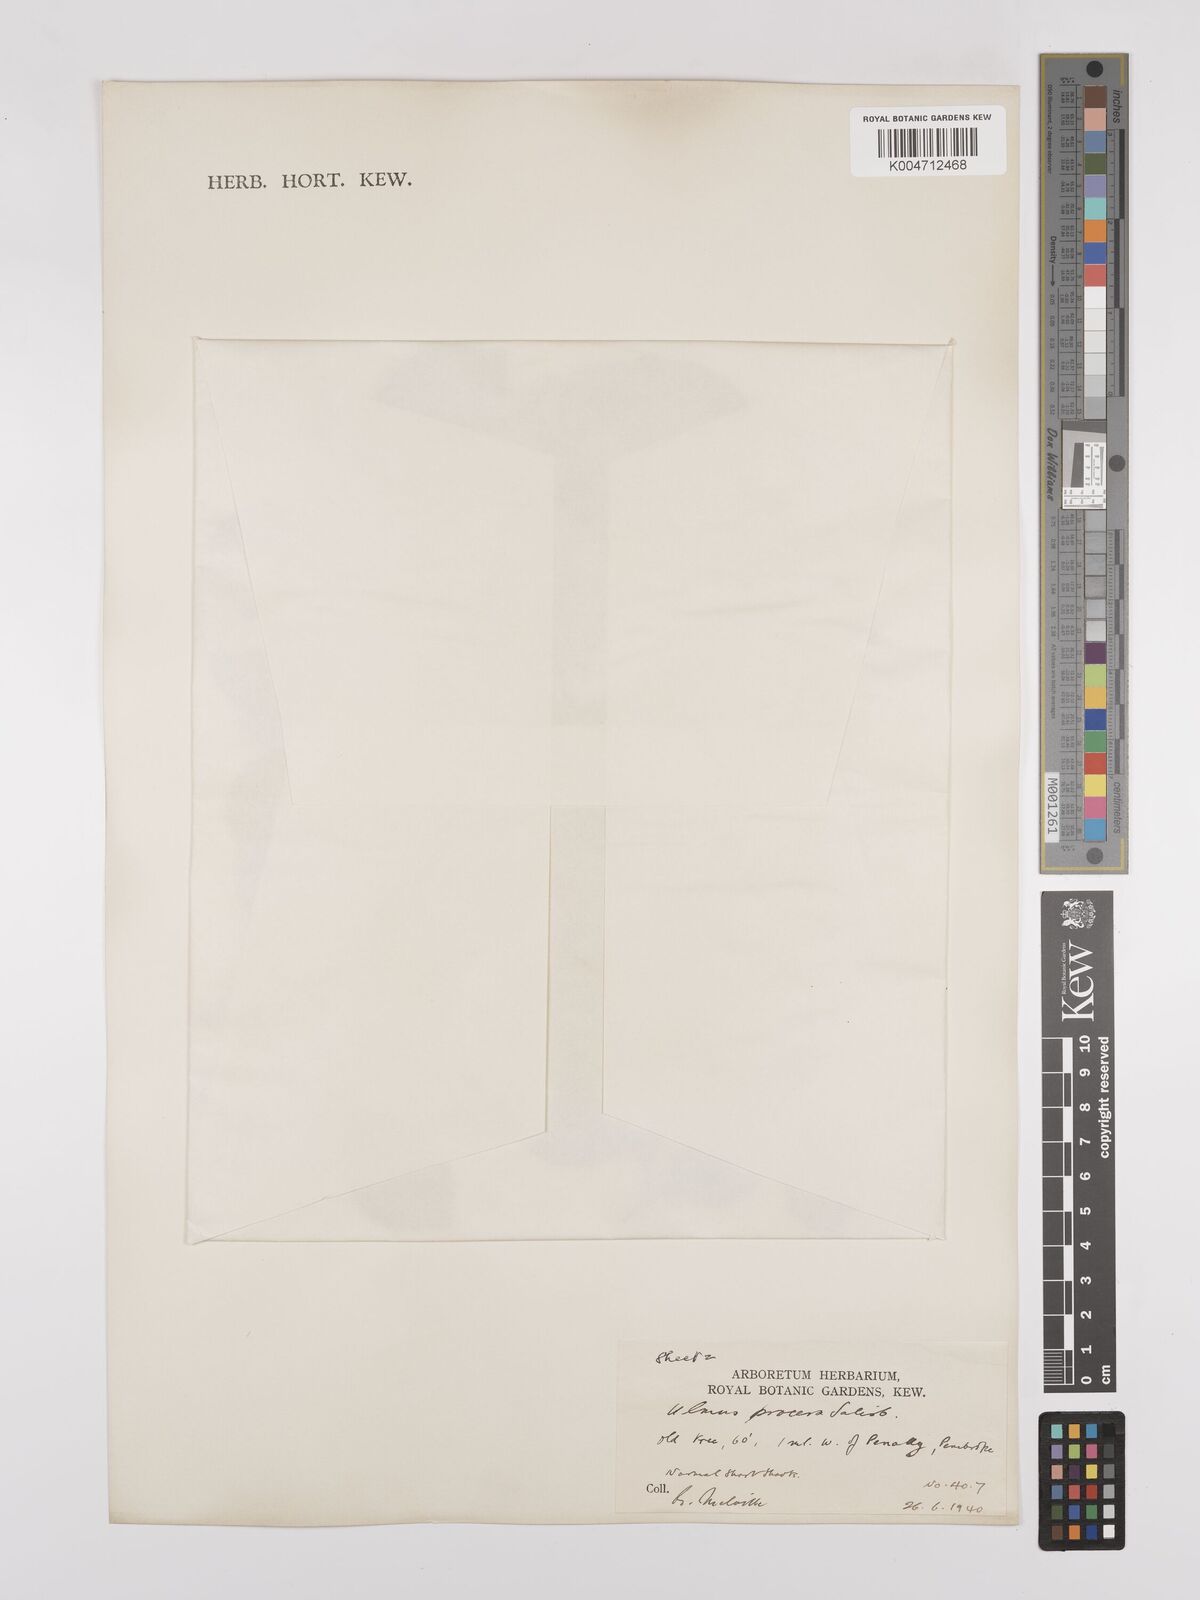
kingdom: Plantae
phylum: Tracheophyta
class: Magnoliopsida
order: Rosales
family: Ulmaceae
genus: Ulmus
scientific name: Ulmus minor
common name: Small-leaved elm
